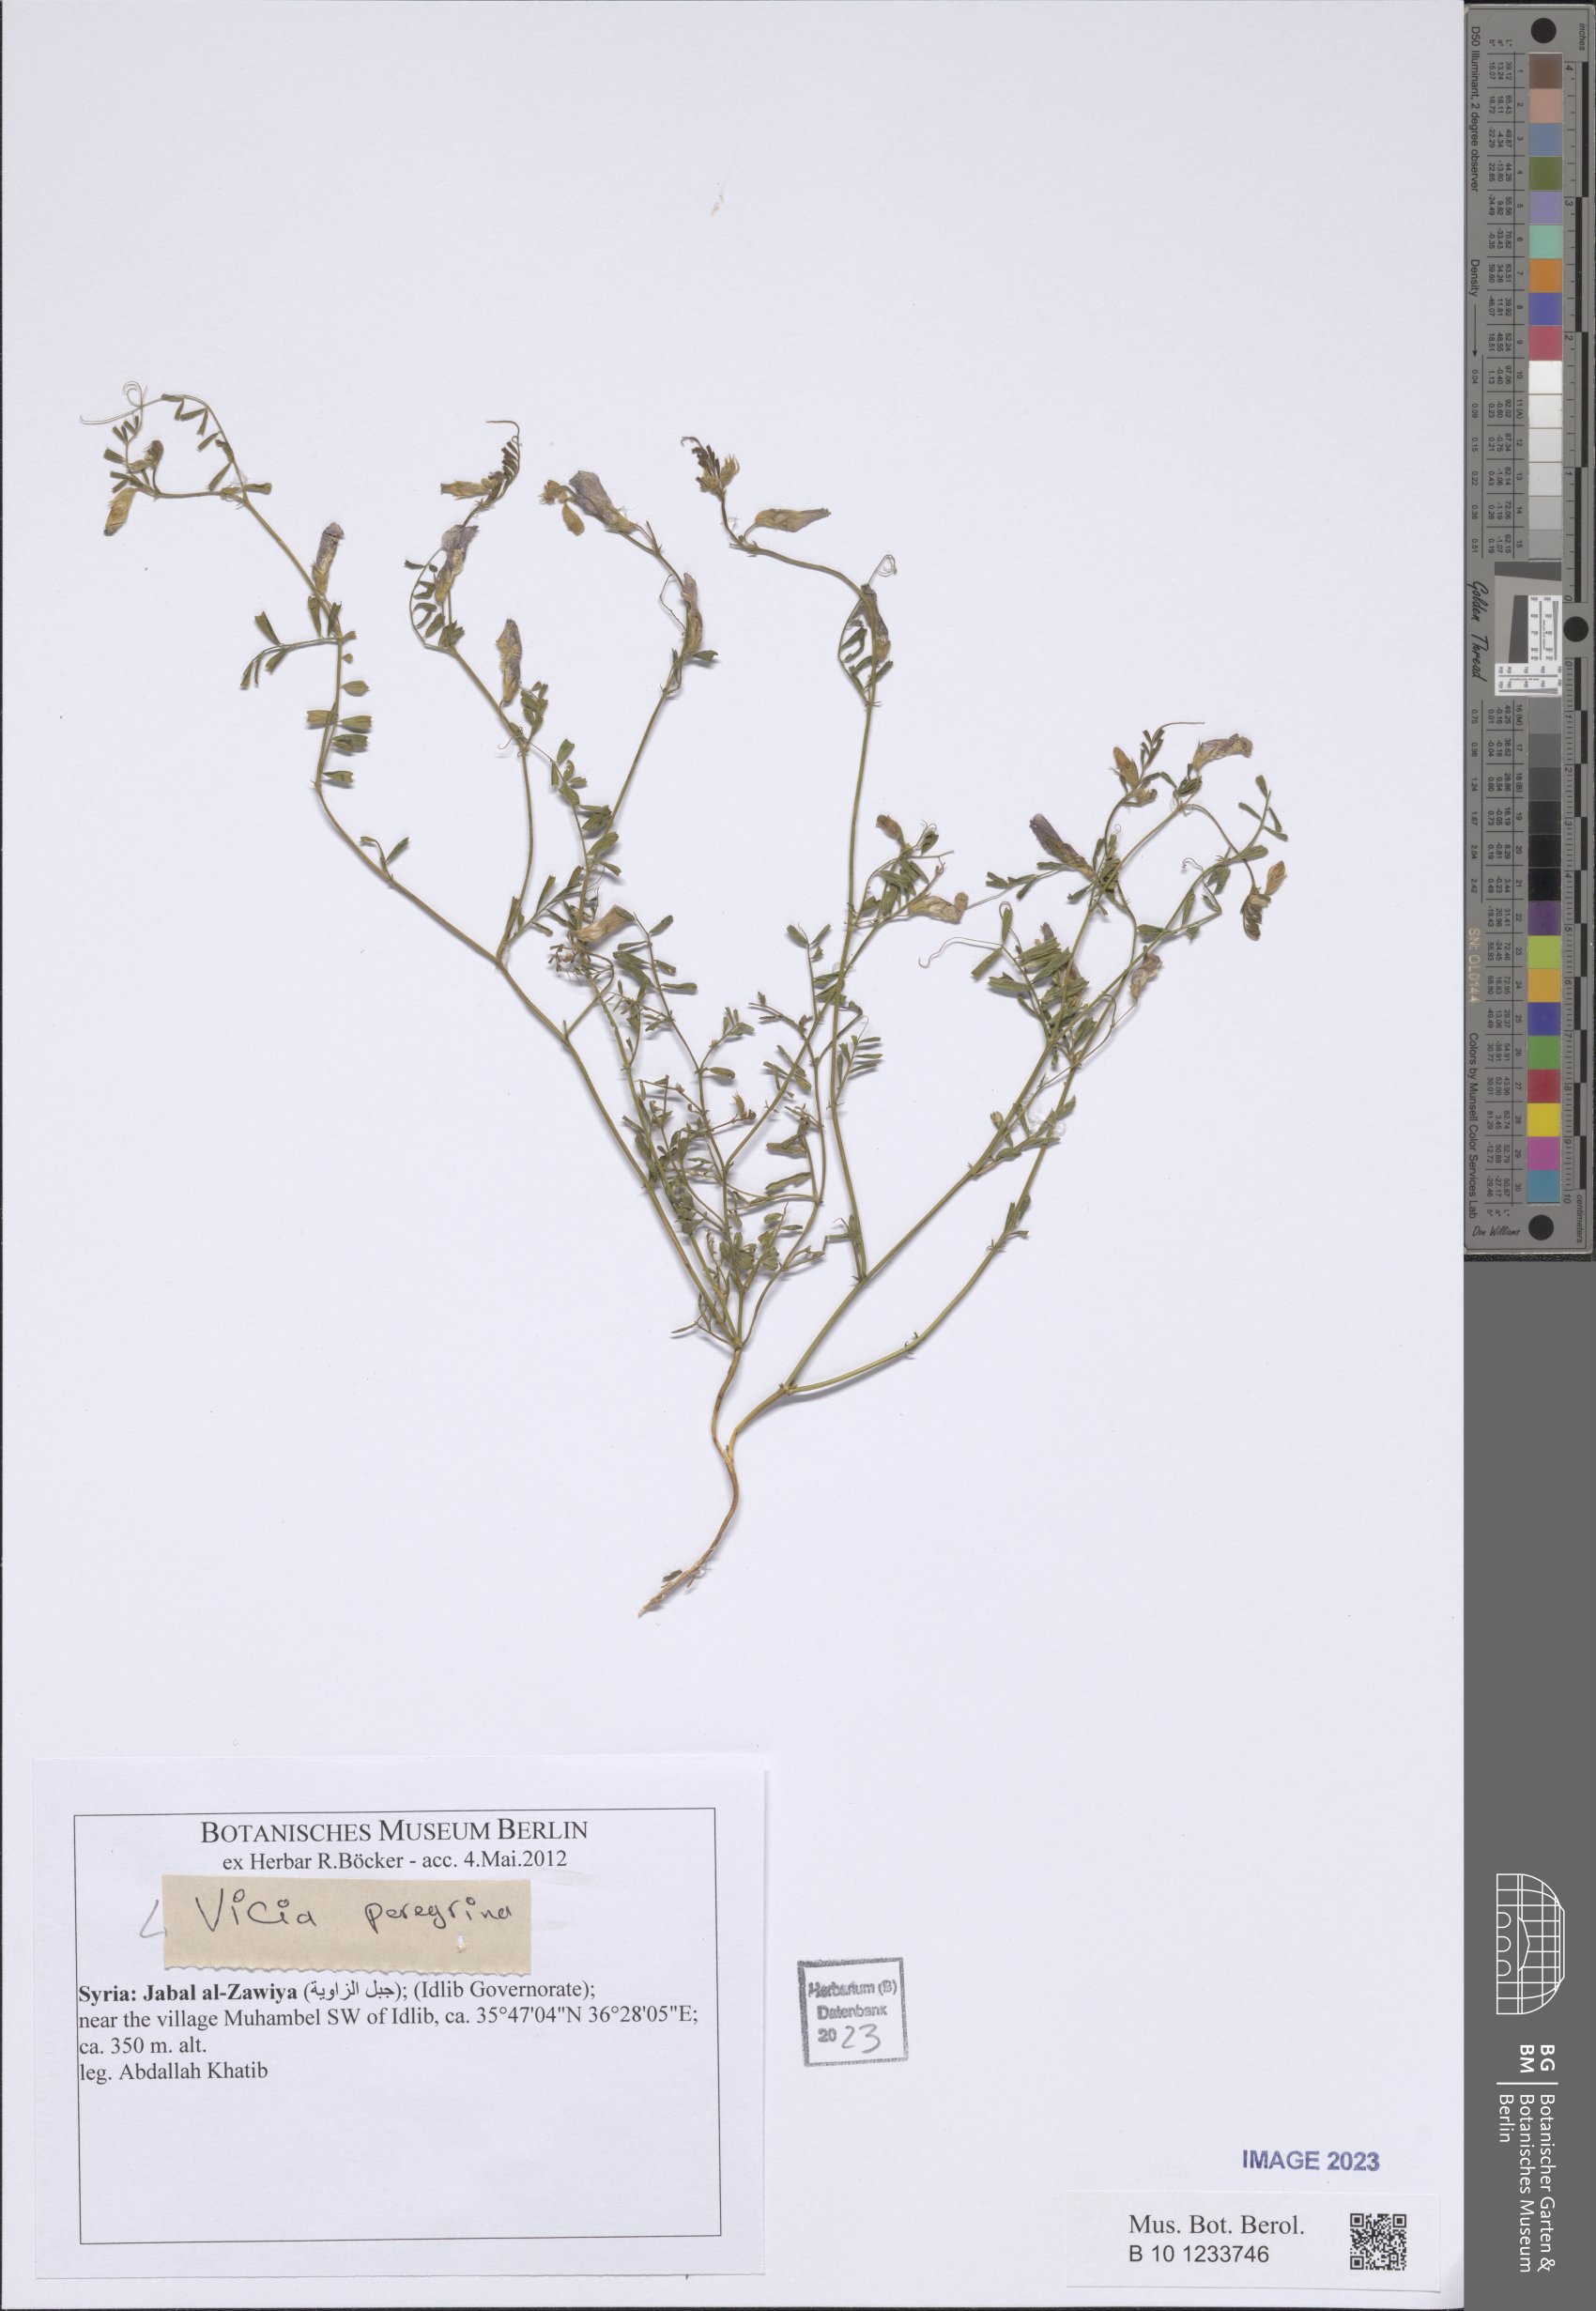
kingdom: Plantae
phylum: Tracheophyta
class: Magnoliopsida
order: Fabales
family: Fabaceae
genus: Vicia
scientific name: Vicia peregrina
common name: Broad-pod vetch
